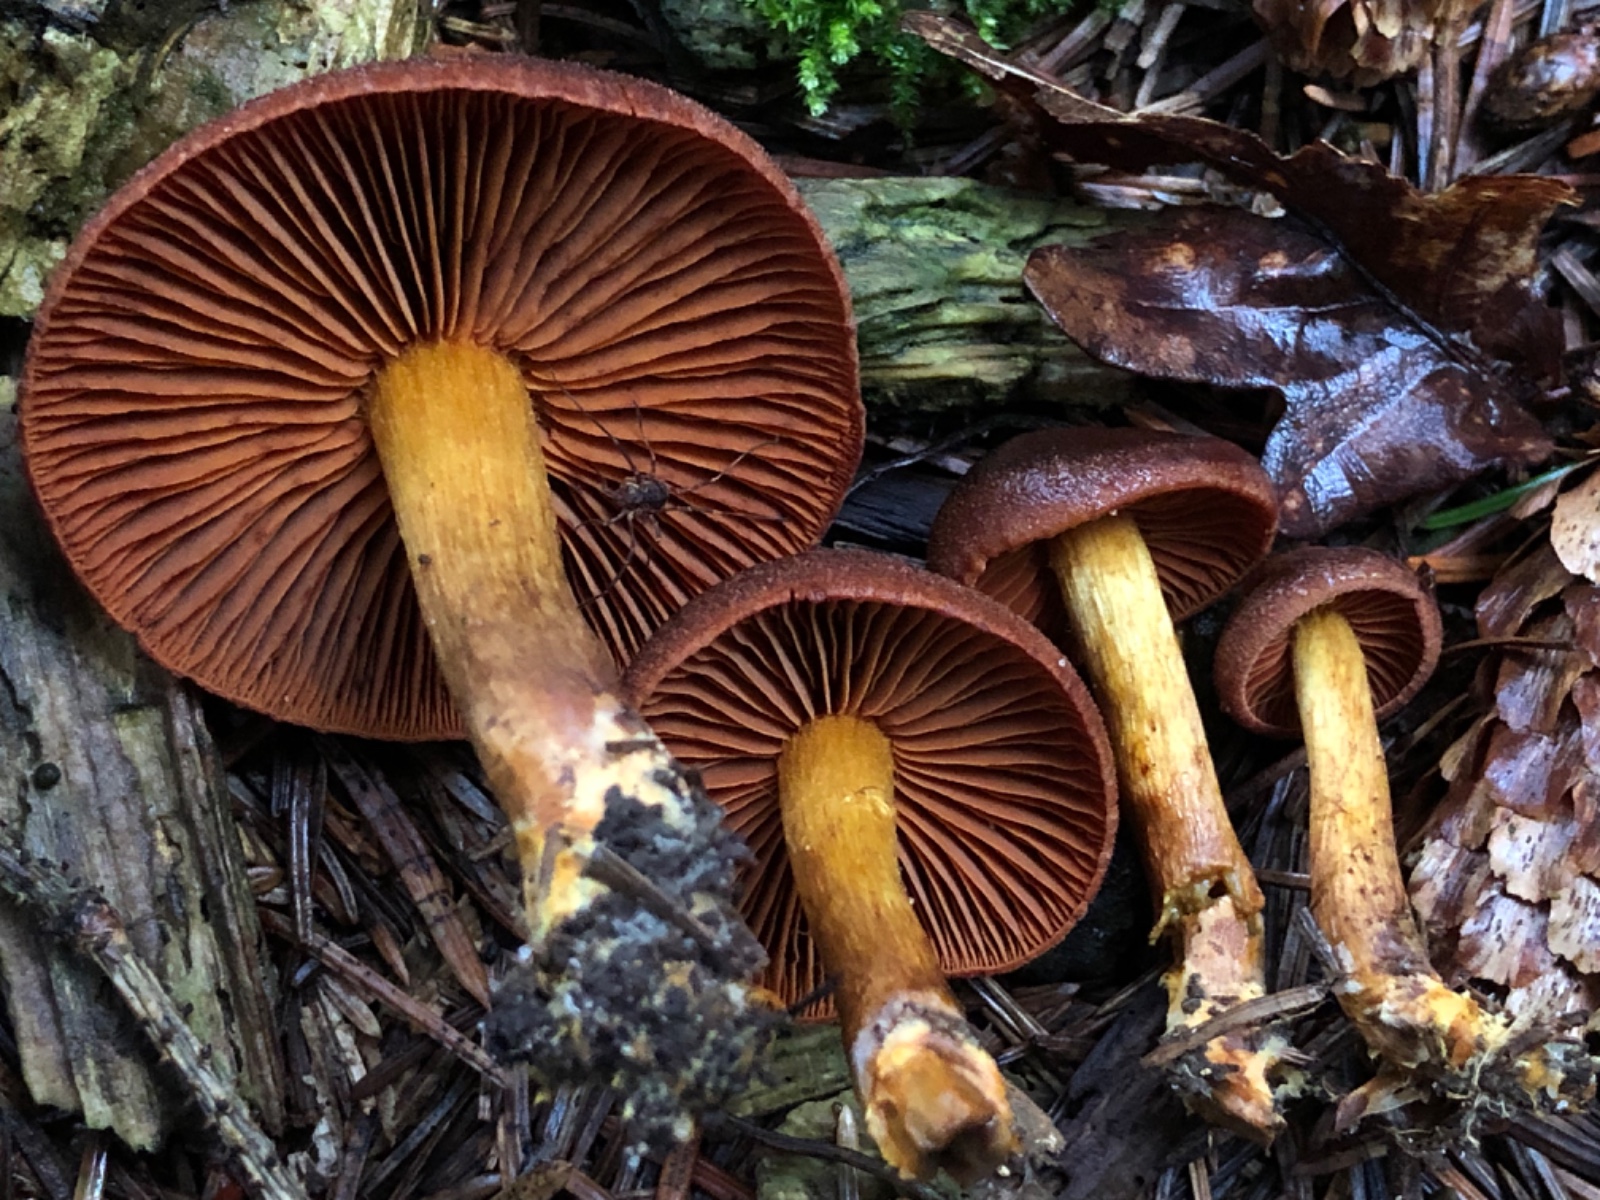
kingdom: Fungi
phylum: Basidiomycota
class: Agaricomycetes
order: Agaricales
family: Cortinariaceae
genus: Cortinarius
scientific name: Cortinarius
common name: cinnoberbladet slørhat
